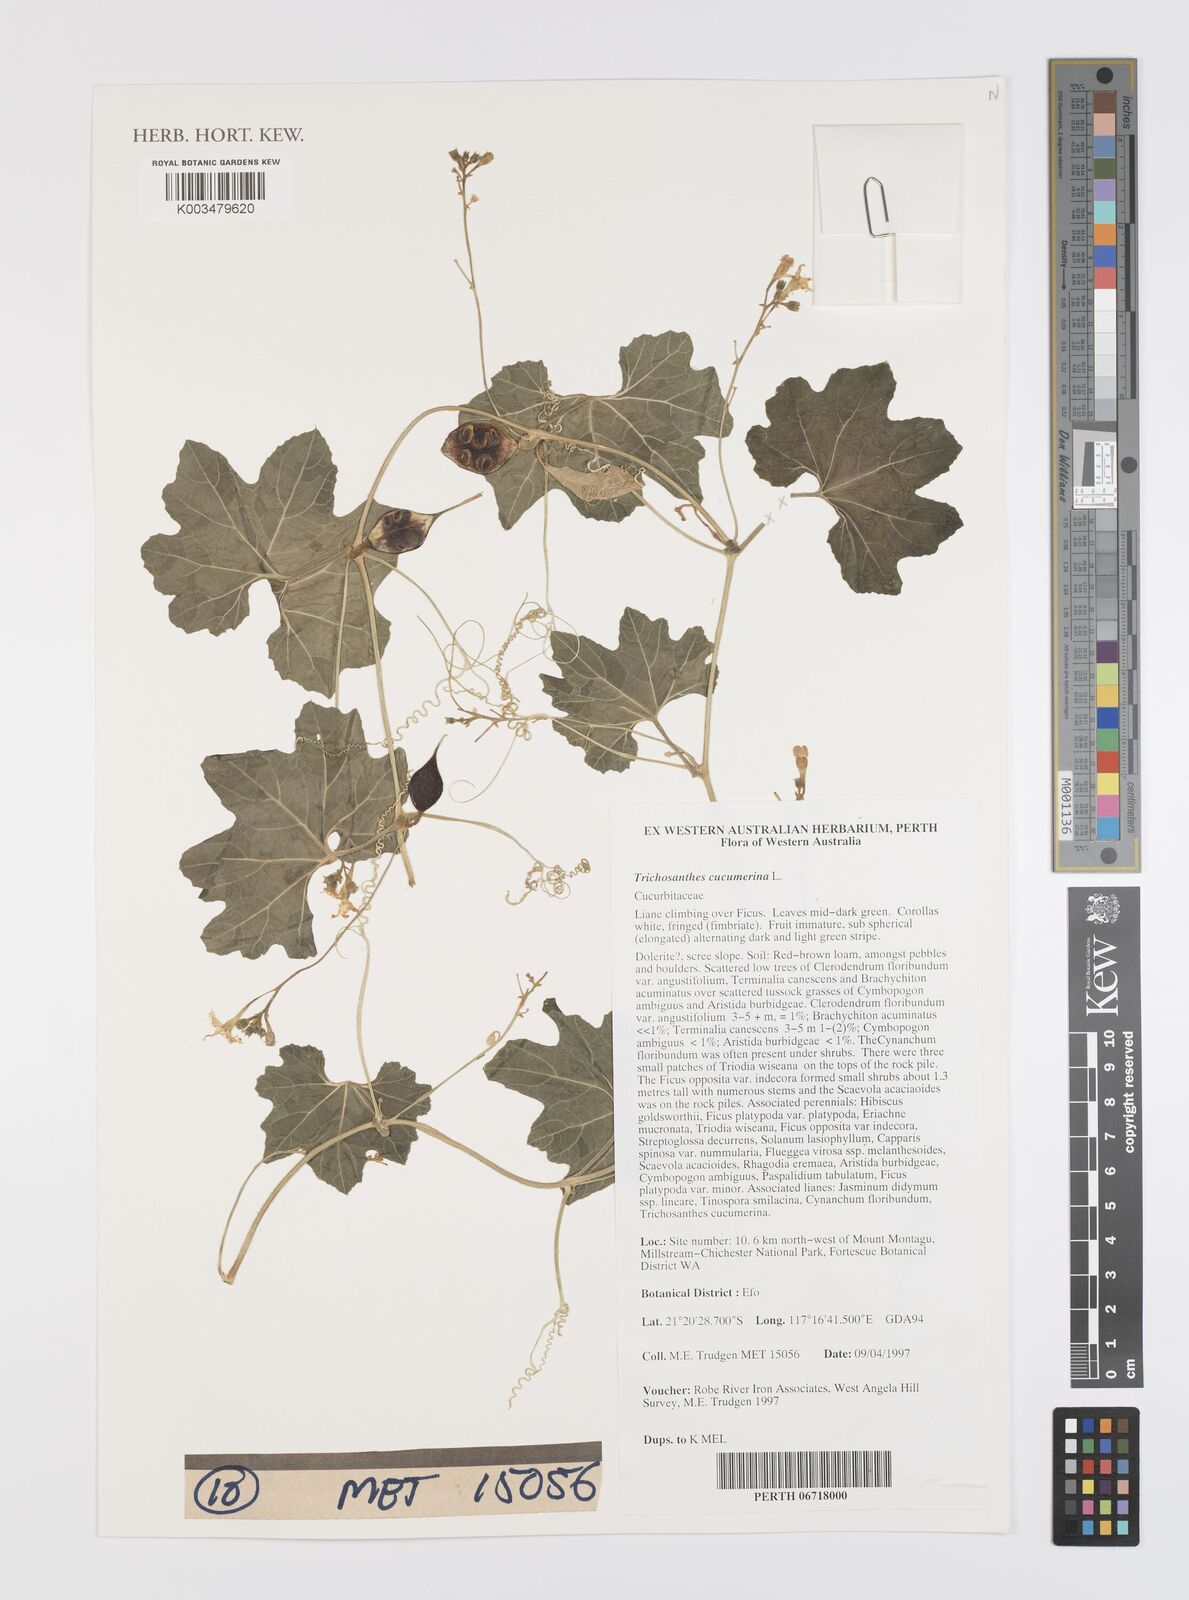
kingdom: Plantae
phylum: Tracheophyta
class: Magnoliopsida
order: Cucurbitales
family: Cucurbitaceae
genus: Trichosanthes
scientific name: Trichosanthes cucumerina
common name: Snakegourd
